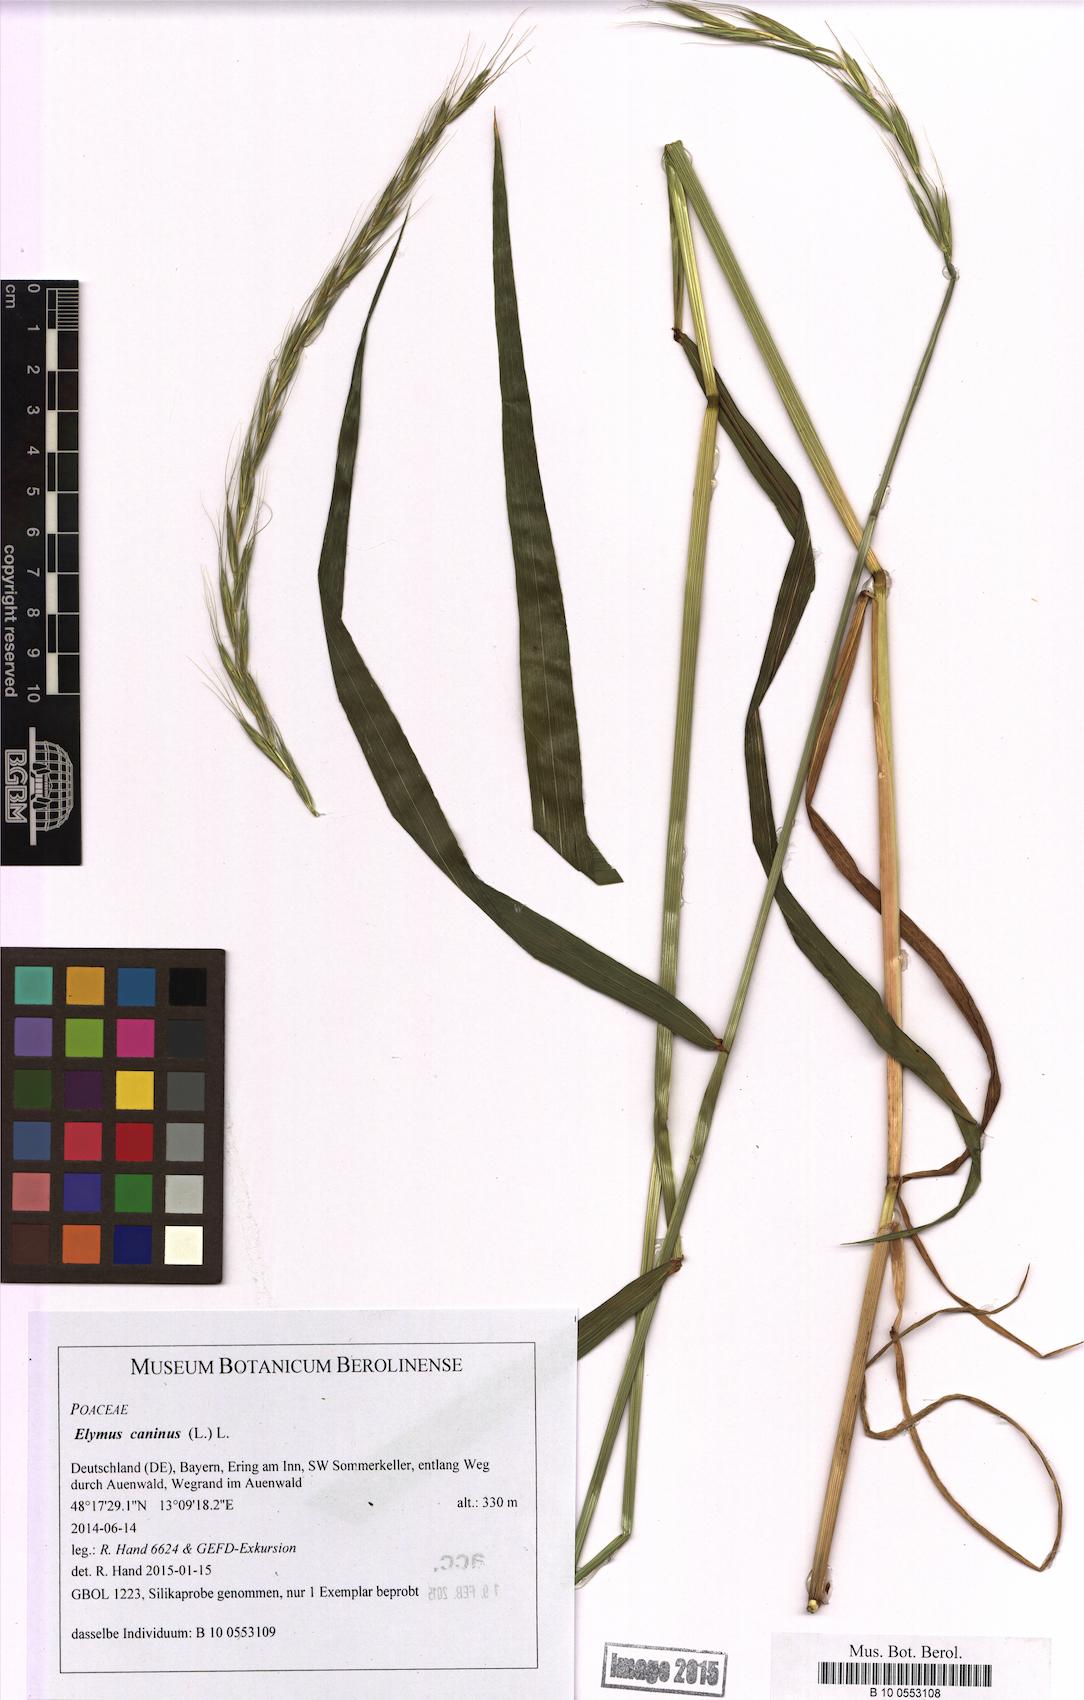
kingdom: Plantae
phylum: Tracheophyta
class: Liliopsida
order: Poales
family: Poaceae
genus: Elymus
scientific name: Elymus caninus
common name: Bearded couch
